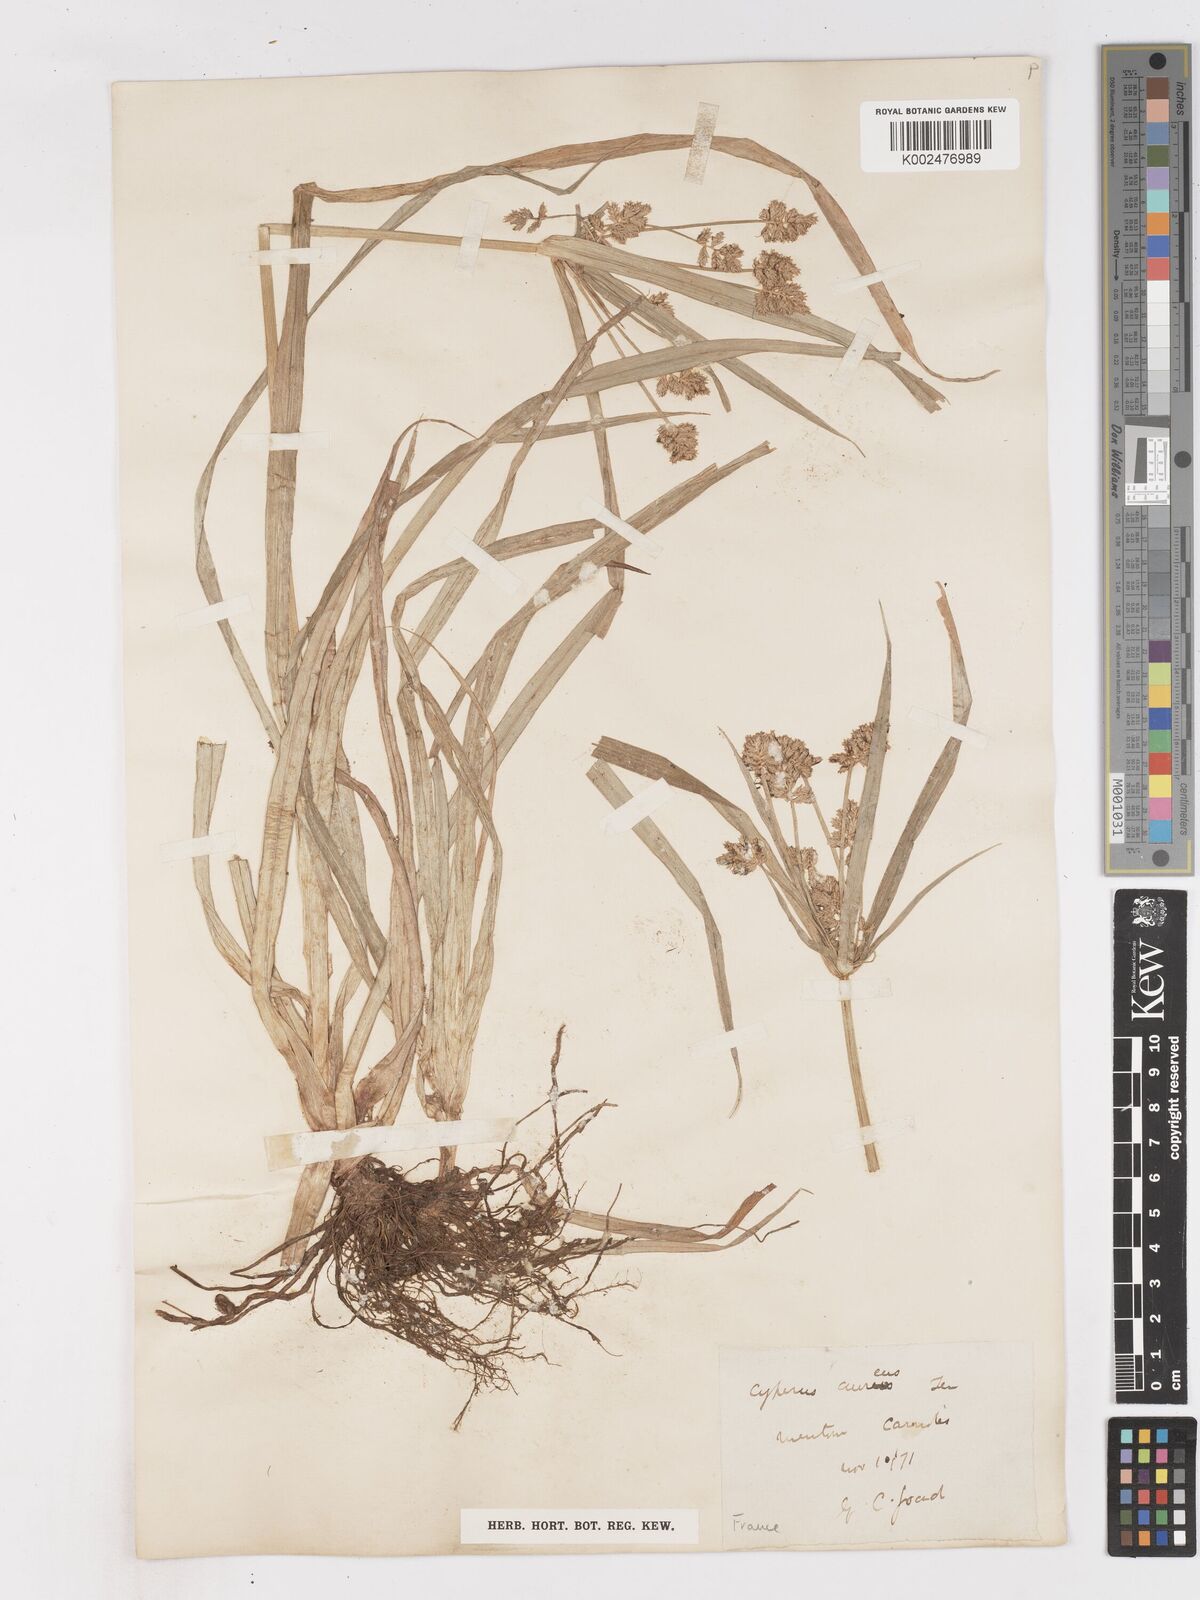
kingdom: Plantae
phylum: Tracheophyta
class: Liliopsida
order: Poales
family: Cyperaceae
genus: Cyperus
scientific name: Cyperus esculentus
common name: Yellow nutsedge
